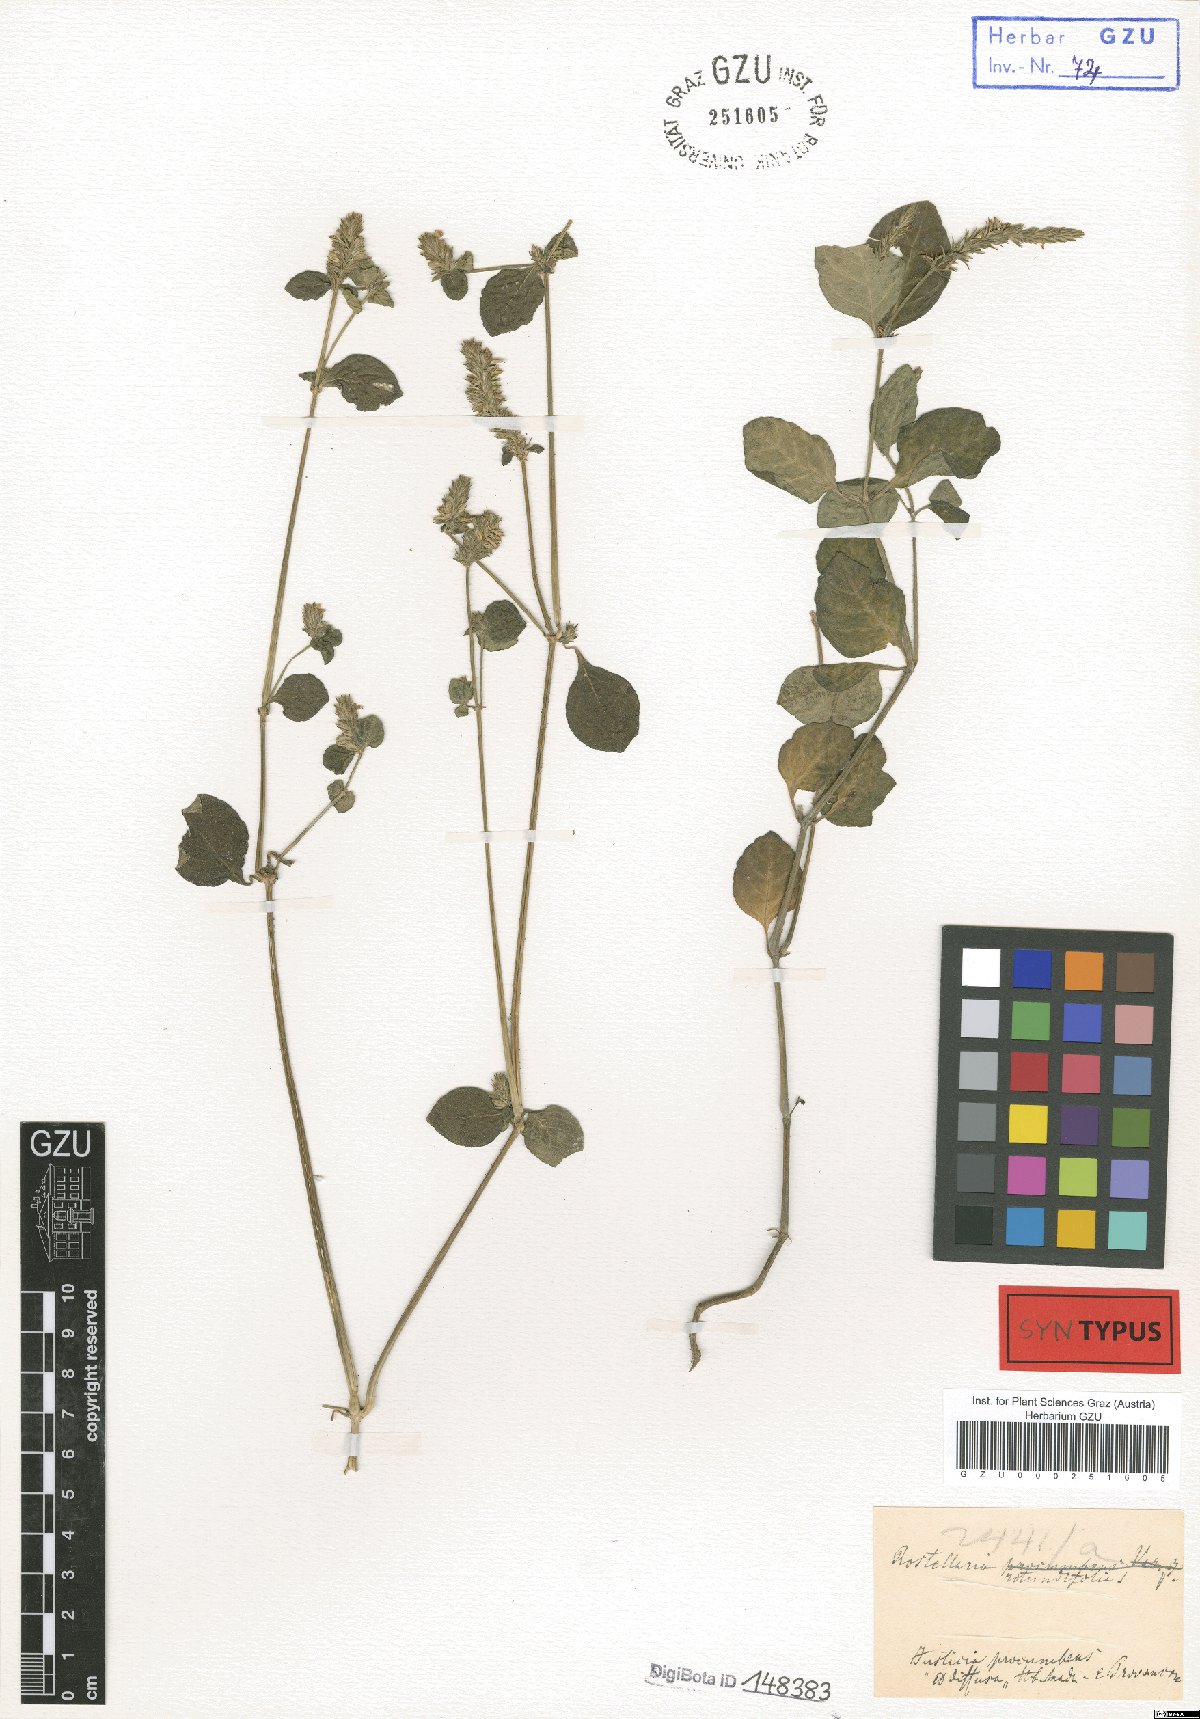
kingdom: Plantae
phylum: Tracheophyta
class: Magnoliopsida
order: Lamiales
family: Acanthaceae
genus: Rostellularia
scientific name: Rostellularia rotundifolia
